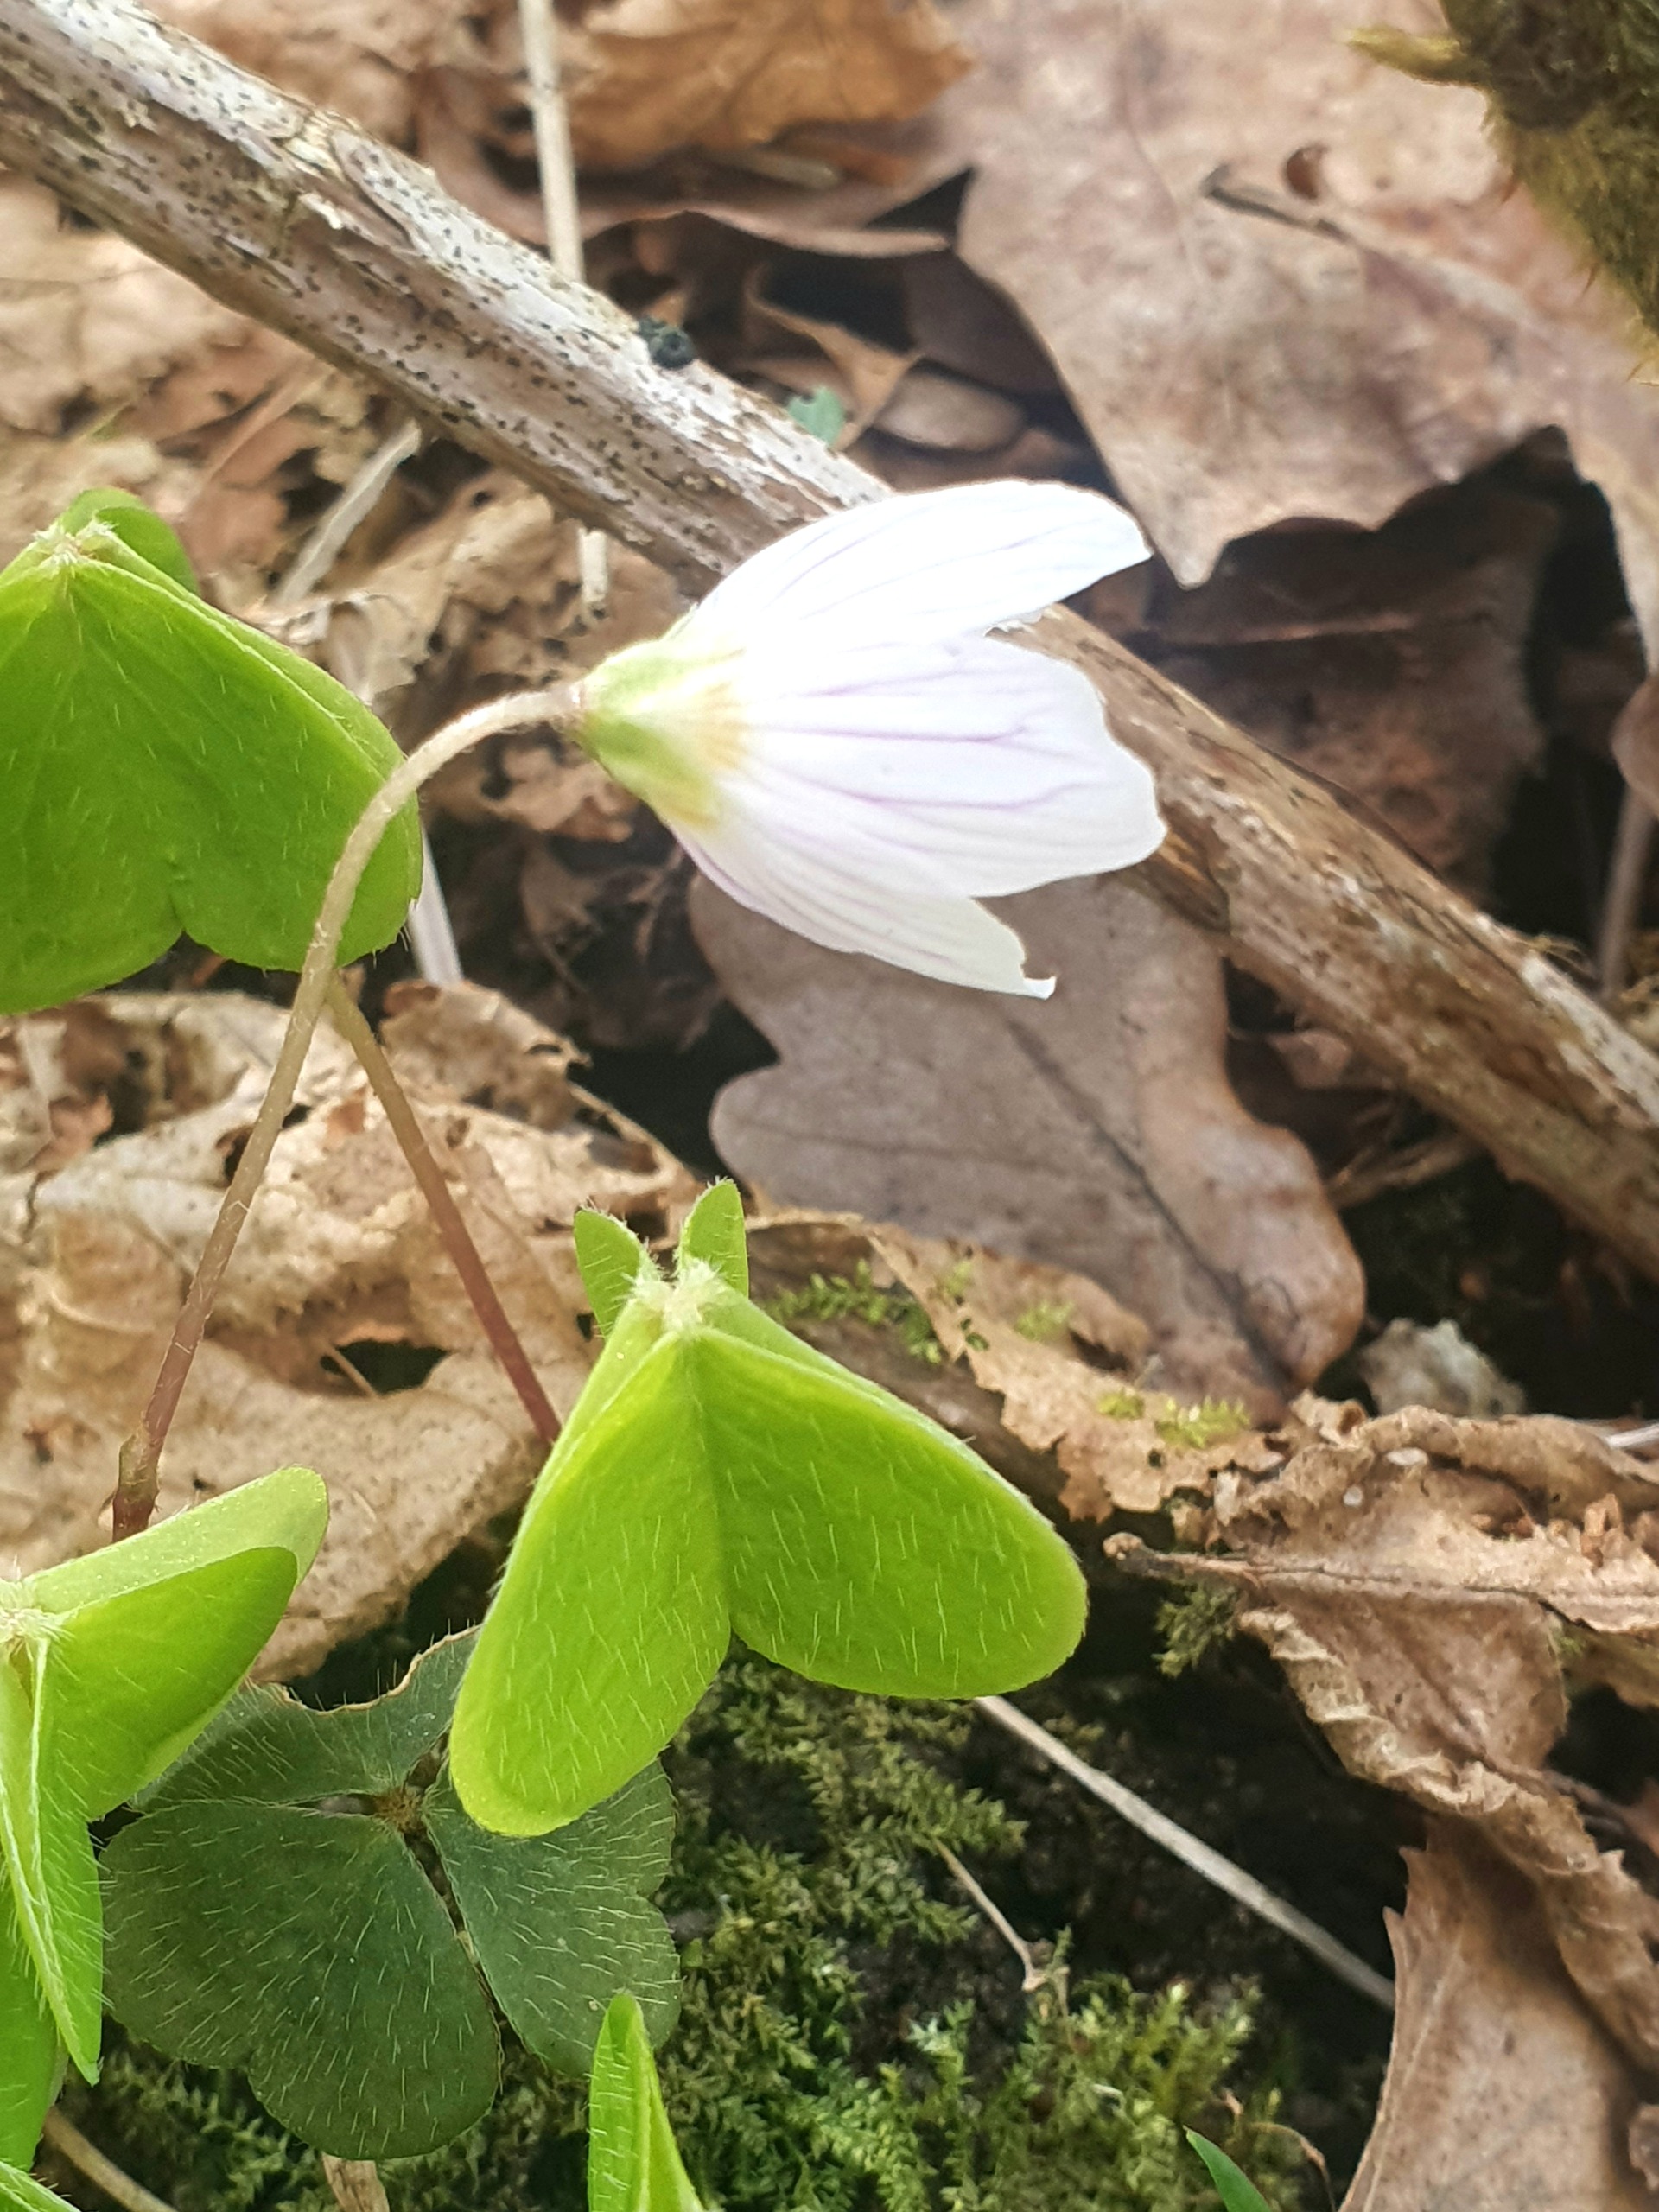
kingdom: Plantae
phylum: Tracheophyta
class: Magnoliopsida
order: Oxalidales
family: Oxalidaceae
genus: Oxalis
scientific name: Oxalis acetosella
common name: Skovsyre
